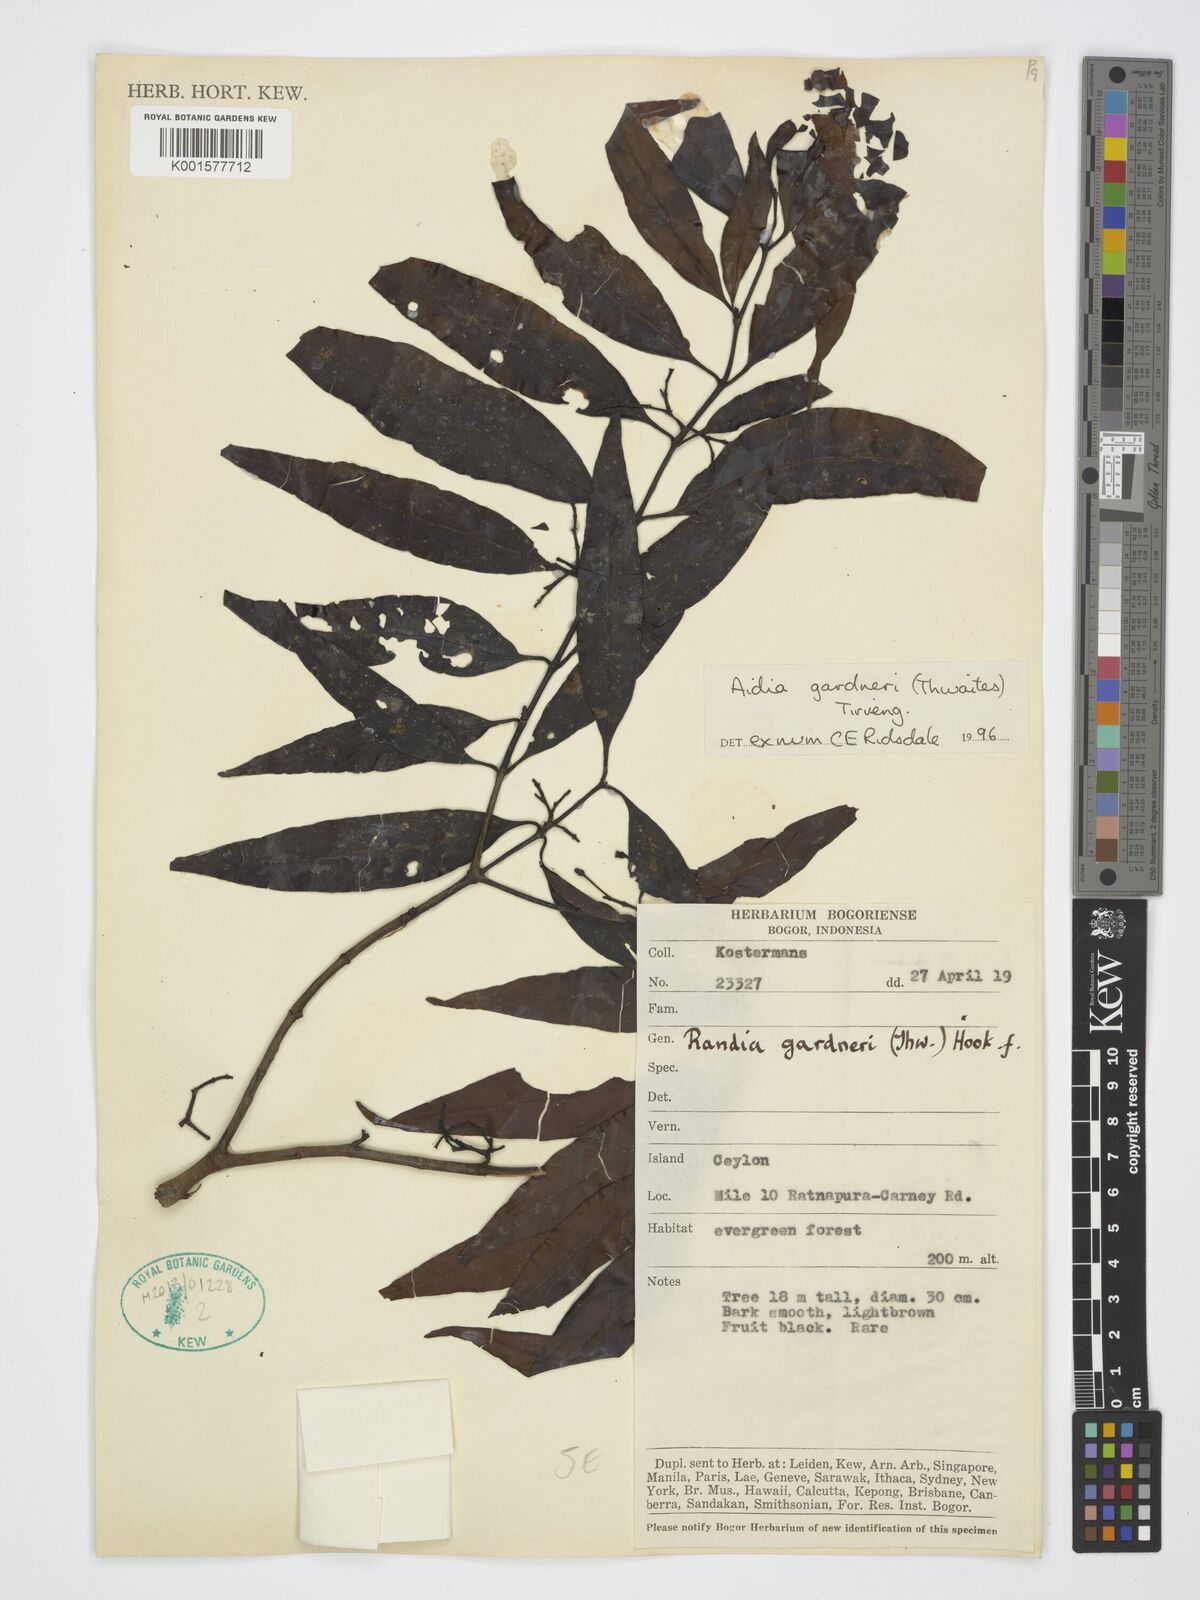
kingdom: Plantae
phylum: Tracheophyta
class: Magnoliopsida
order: Gentianales
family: Rubiaceae
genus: Aidia
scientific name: Aidia gardneri
